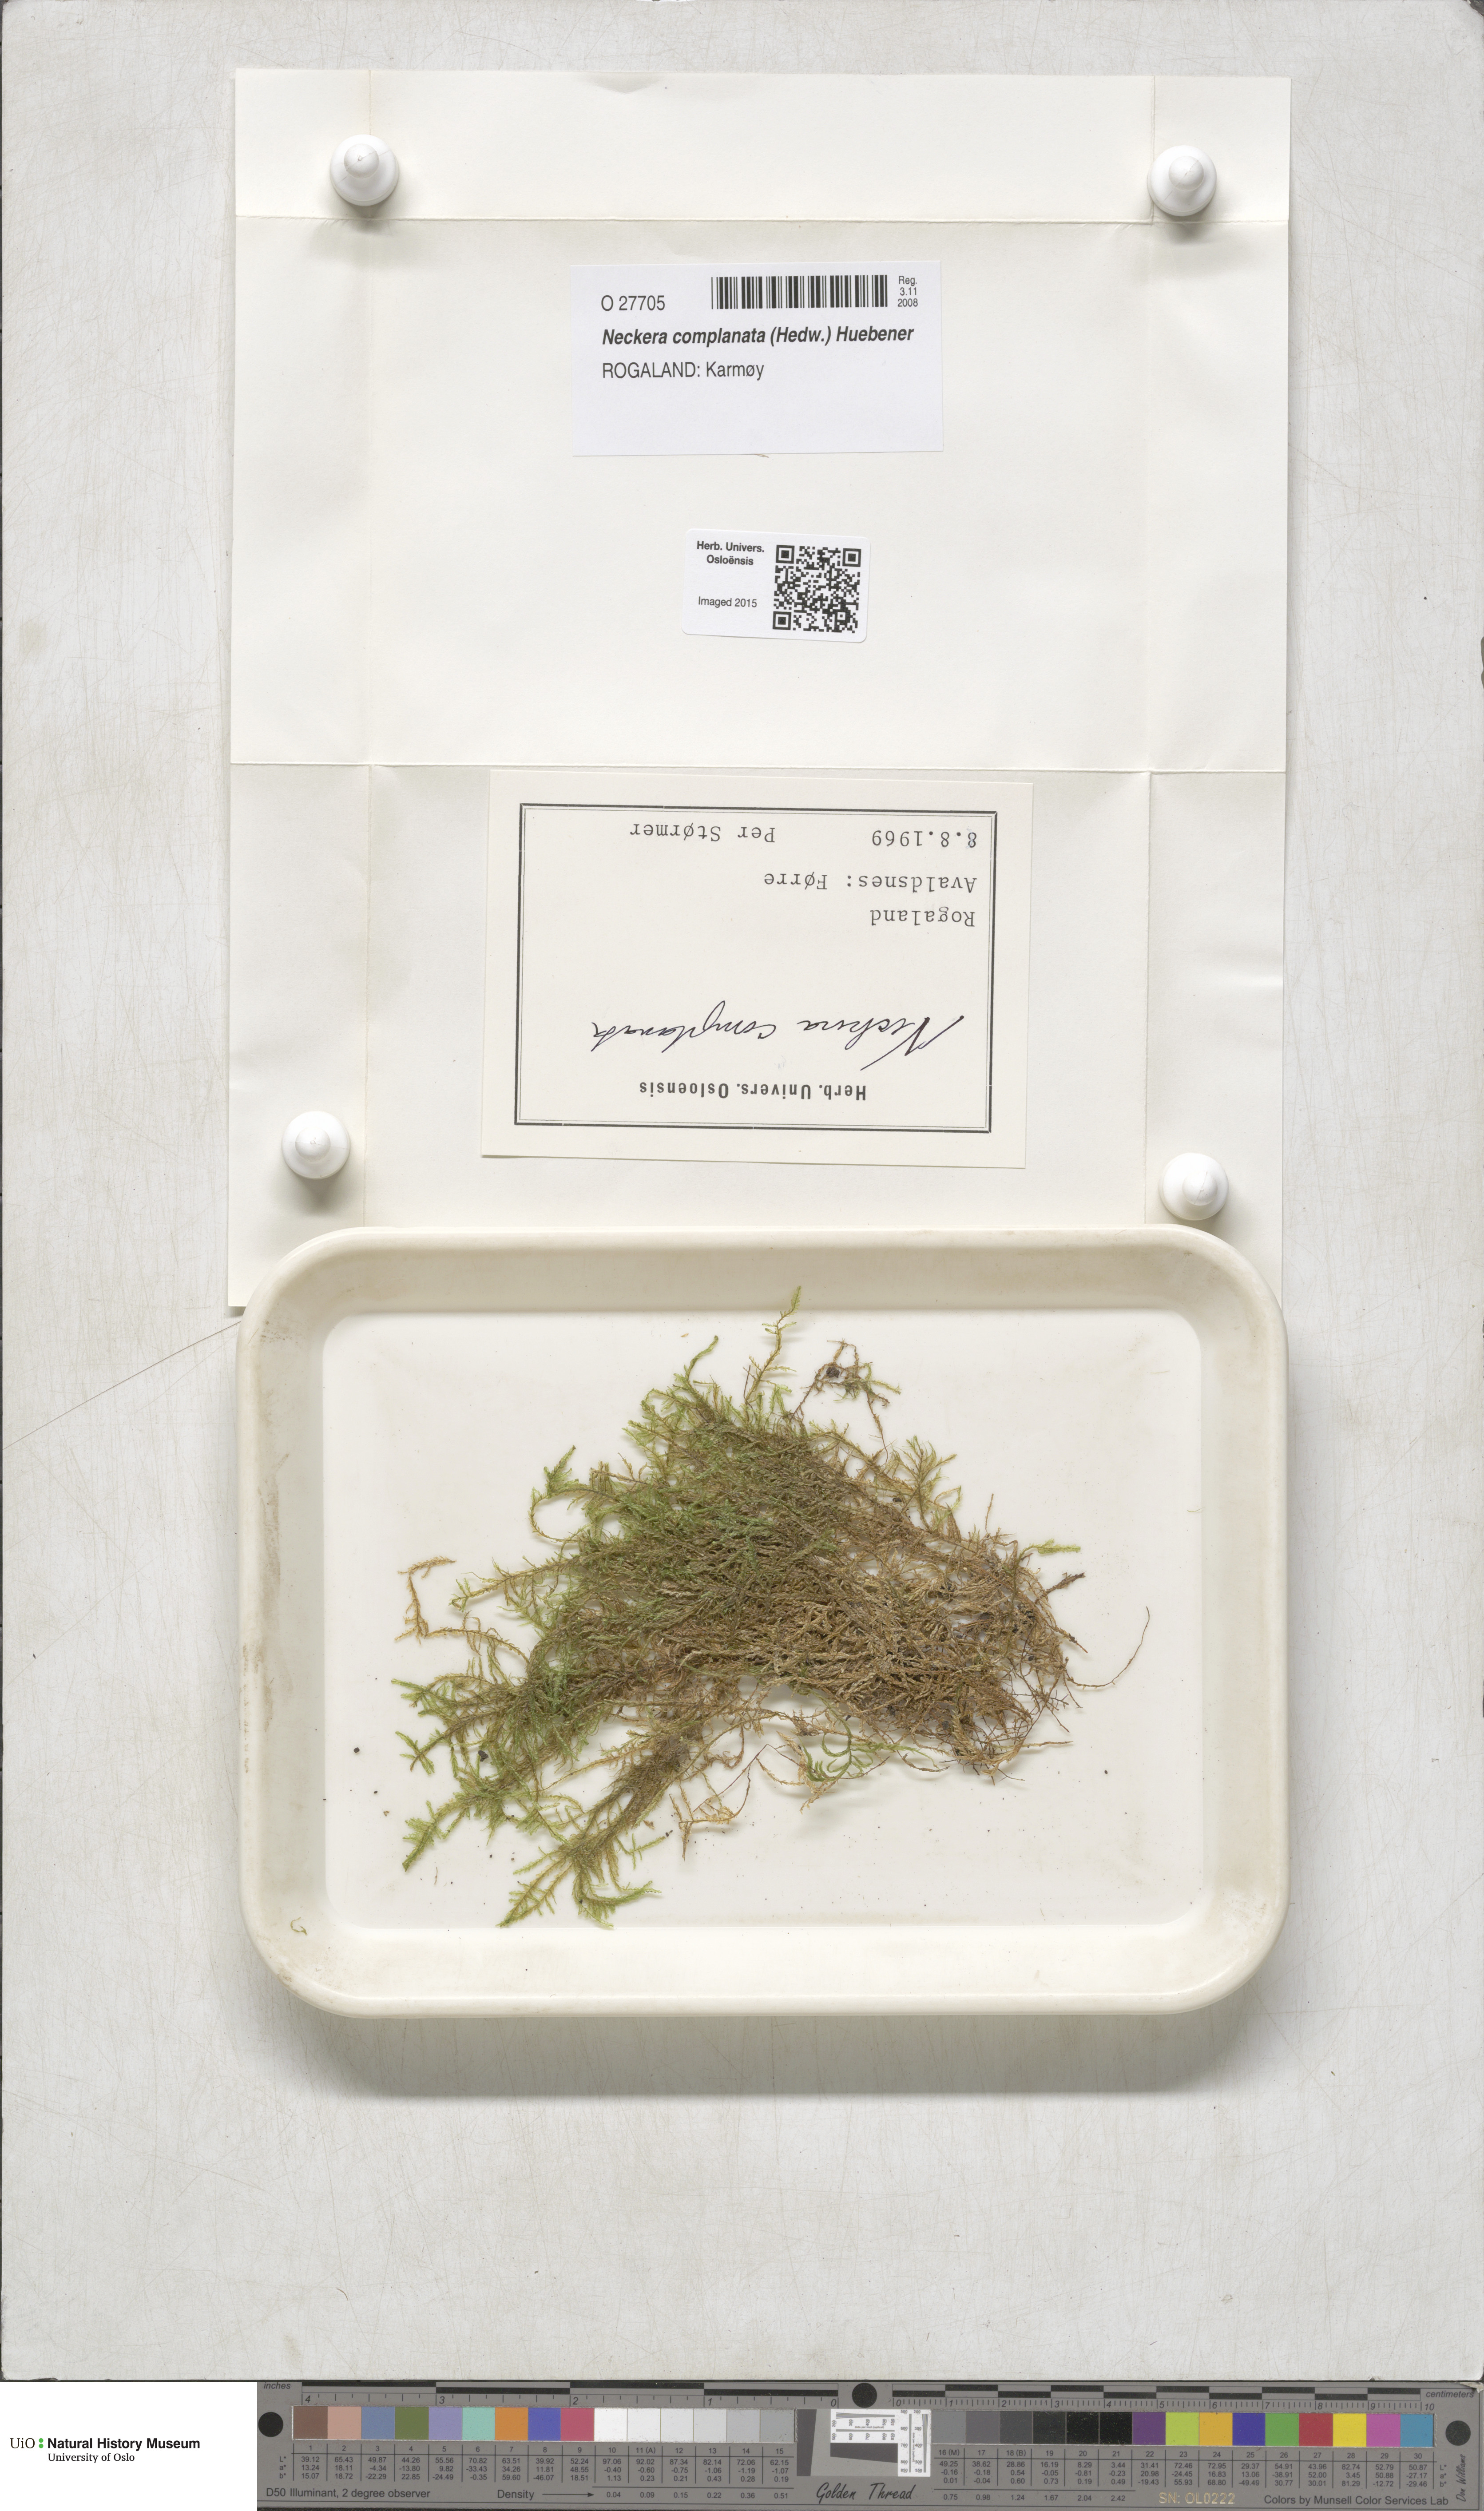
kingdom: Plantae
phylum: Bryophyta
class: Bryopsida
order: Hypnales
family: Neckeraceae
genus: Alleniella
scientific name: Alleniella complanata
